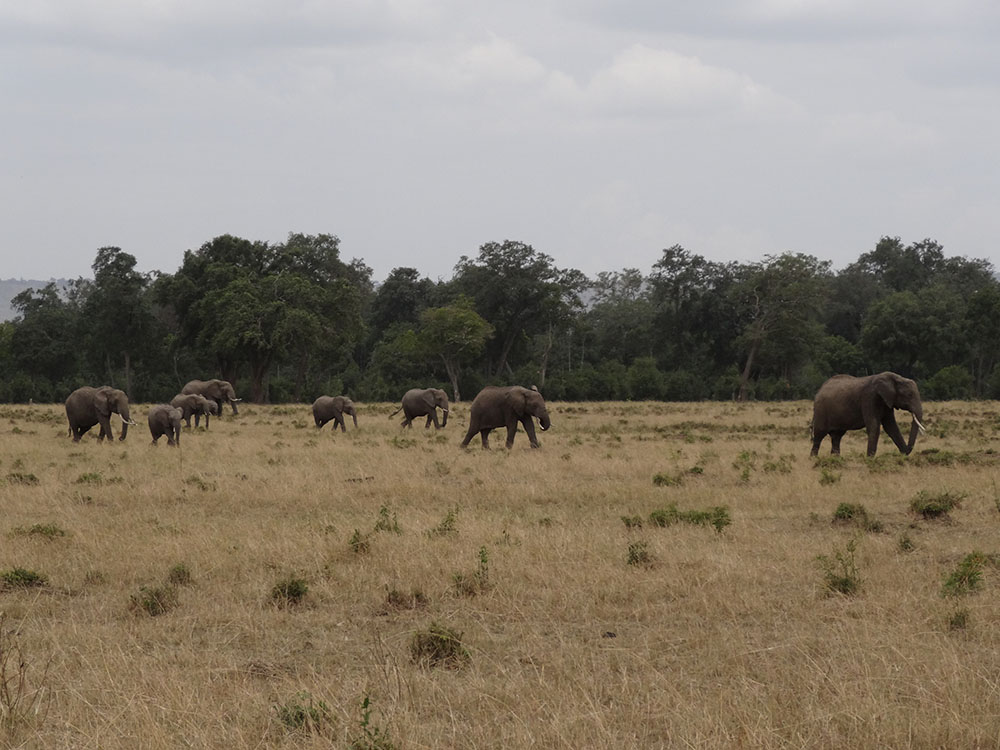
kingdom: Animalia
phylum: Chordata
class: Mammalia
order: Proboscidea
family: Elephantidae
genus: Loxodonta
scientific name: Loxodonta africana
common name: African elephant
